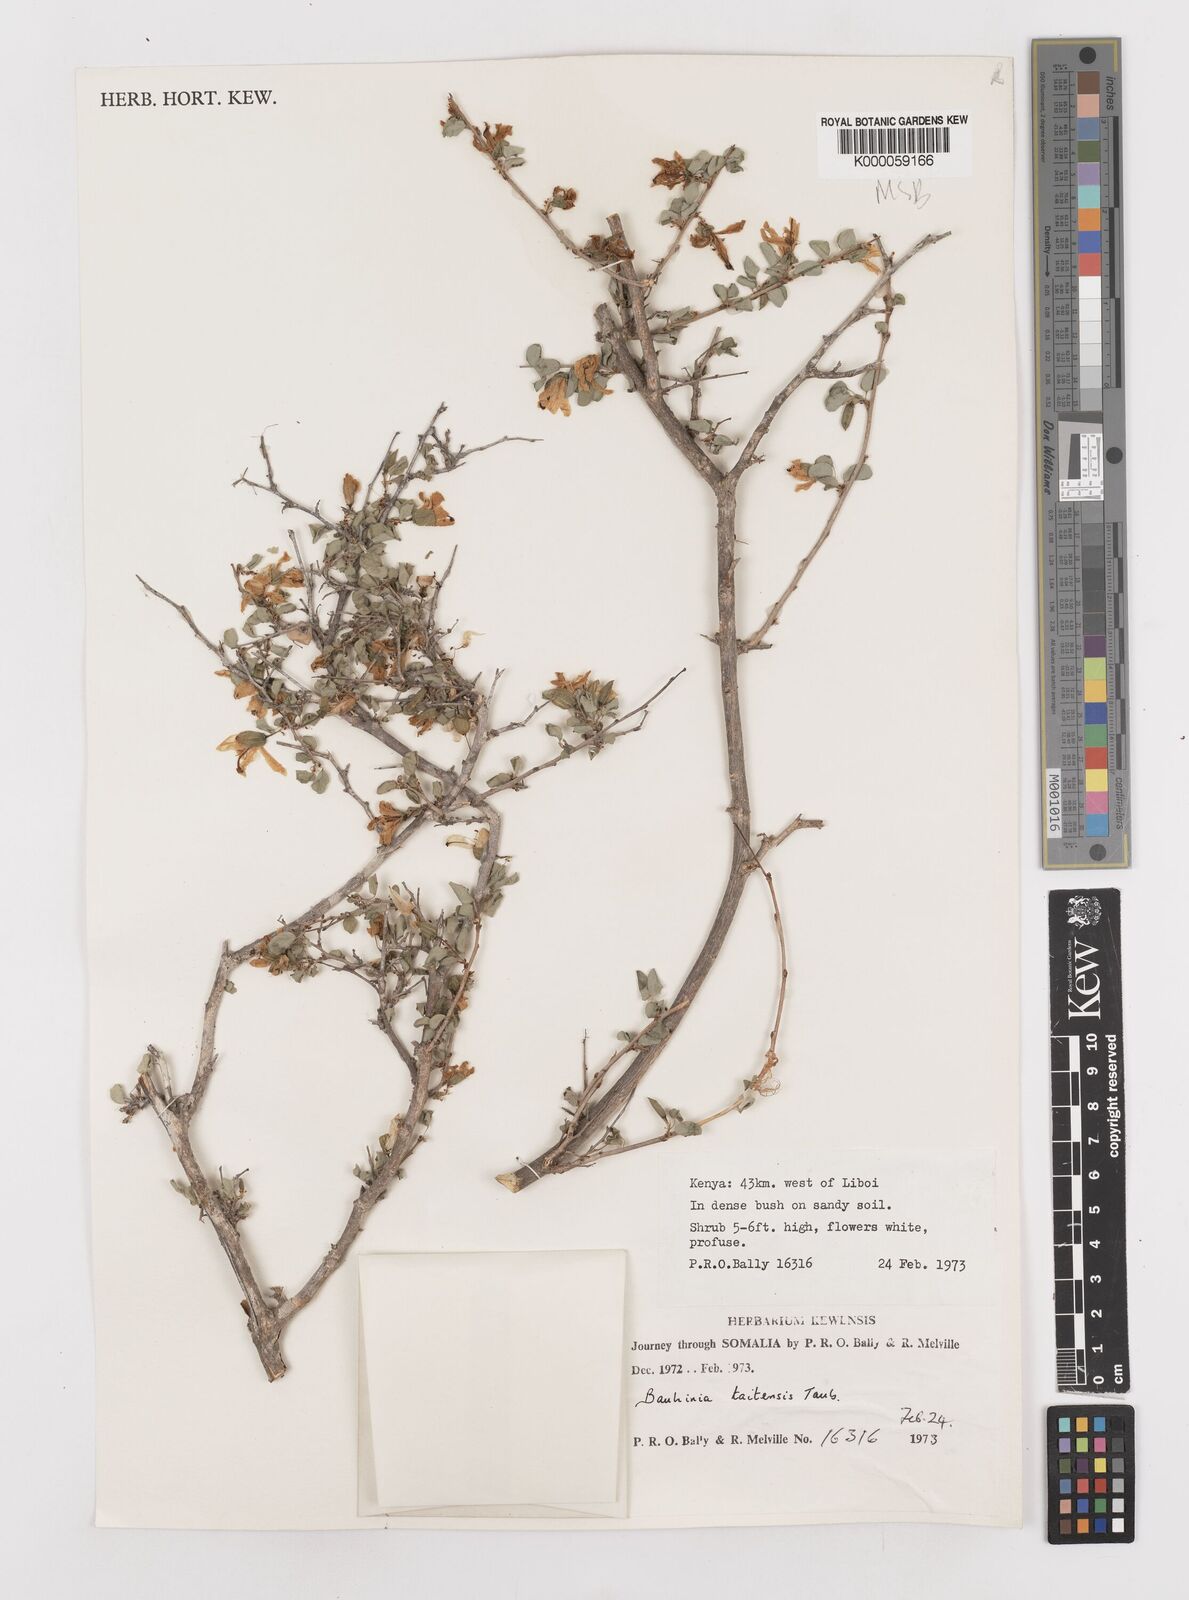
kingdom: Plantae
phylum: Tracheophyta
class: Magnoliopsida
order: Fabales
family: Fabaceae
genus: Bauhinia
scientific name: Bauhinia taitensis
